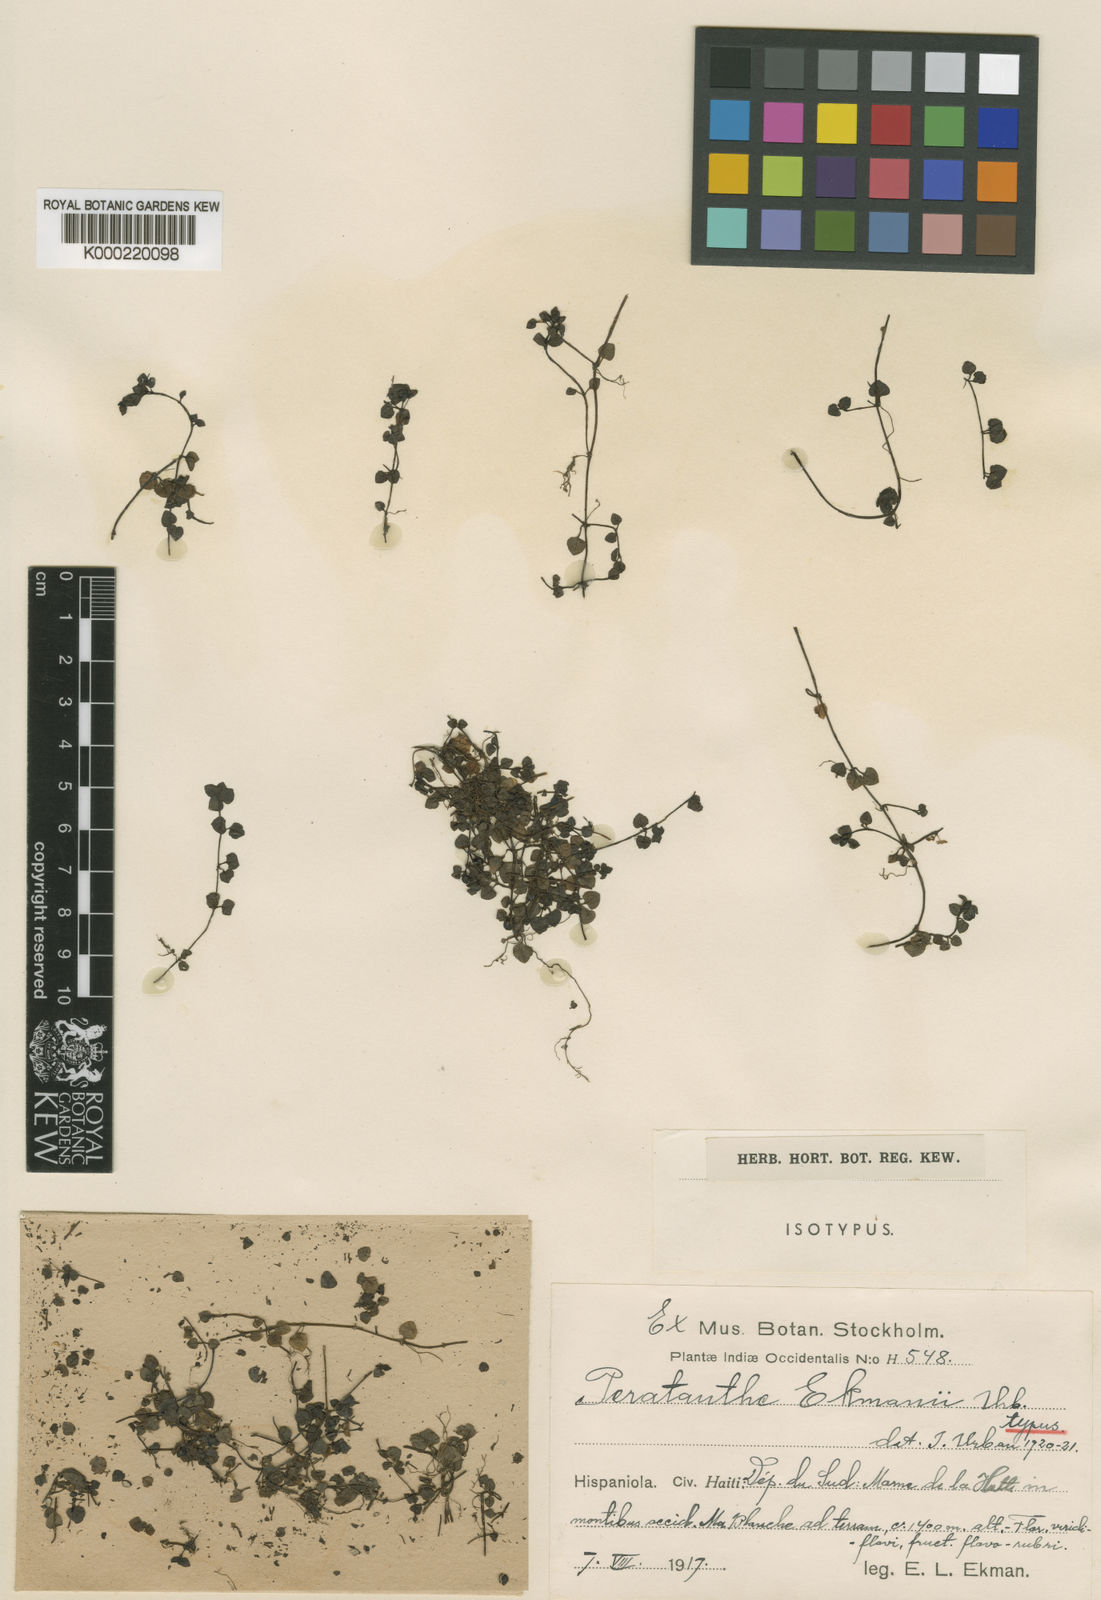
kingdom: Plantae
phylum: Tracheophyta
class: Magnoliopsida
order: Gentianales
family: Rubiaceae
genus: Nertera
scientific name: Nertera granadensis
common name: Beadplant
